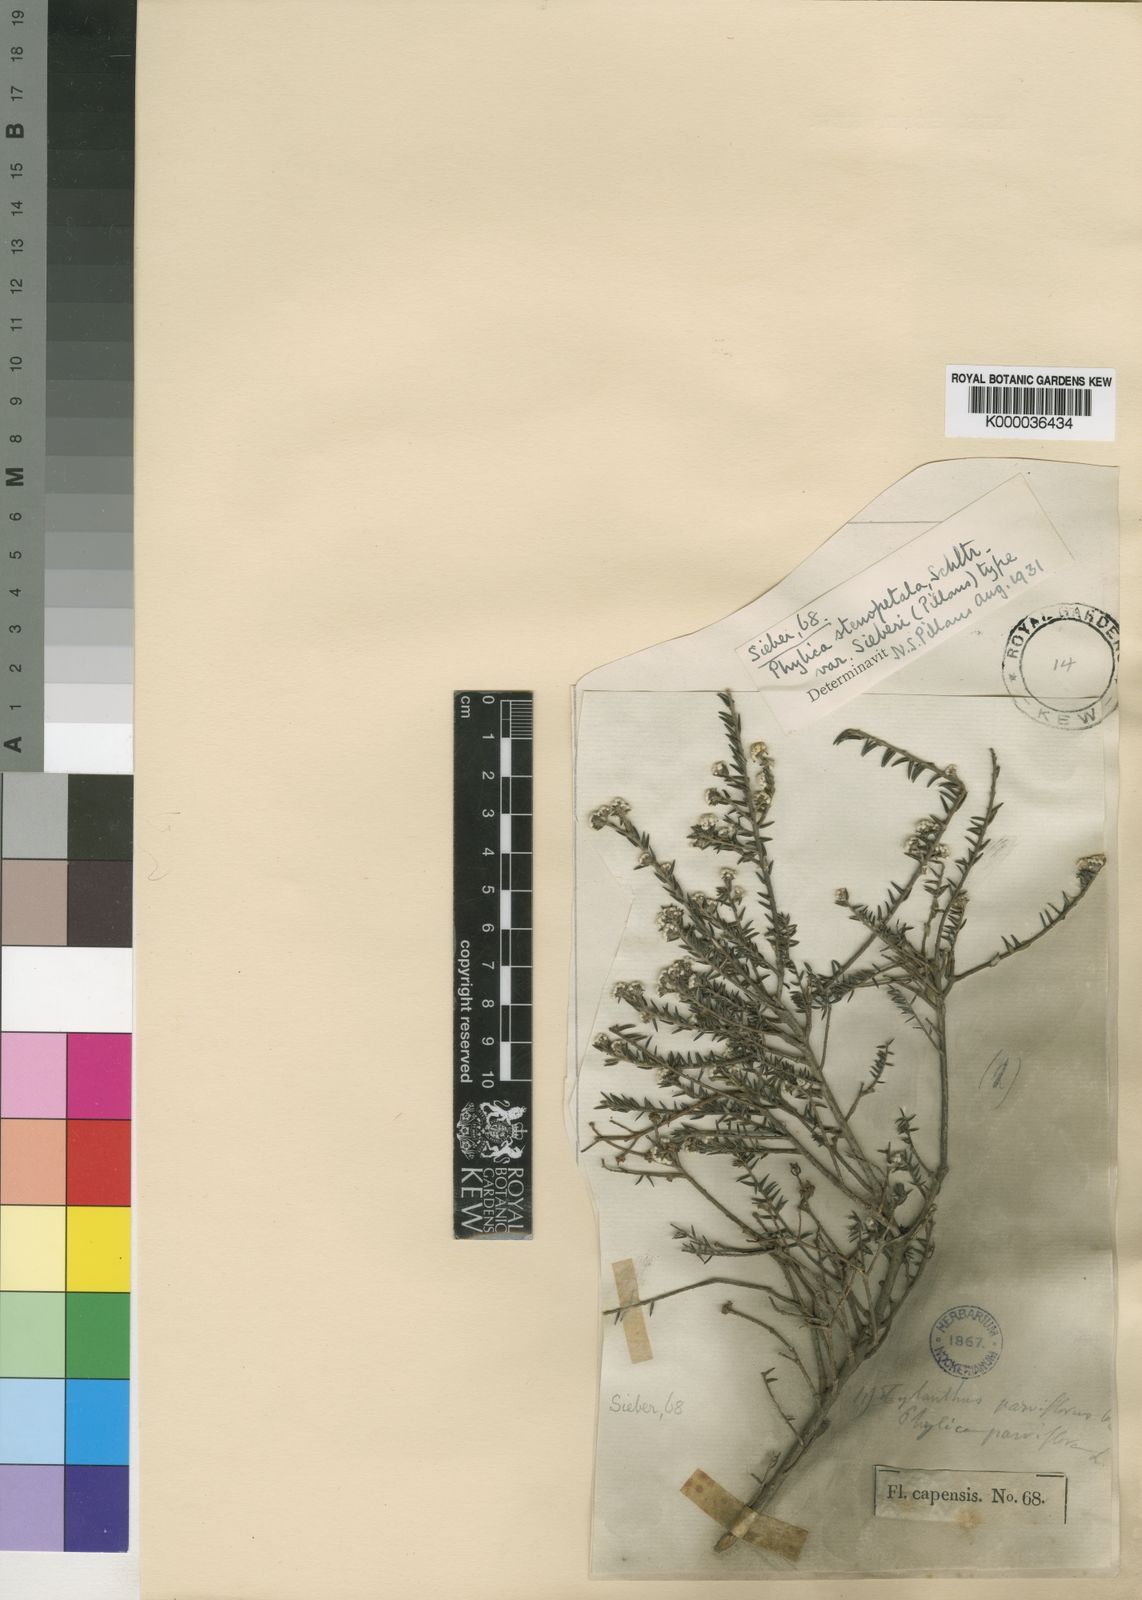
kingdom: Plantae
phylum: Tracheophyta
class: Magnoliopsida
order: Rosales
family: Rhamnaceae
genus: Phylica
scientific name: Phylica stenopetala
